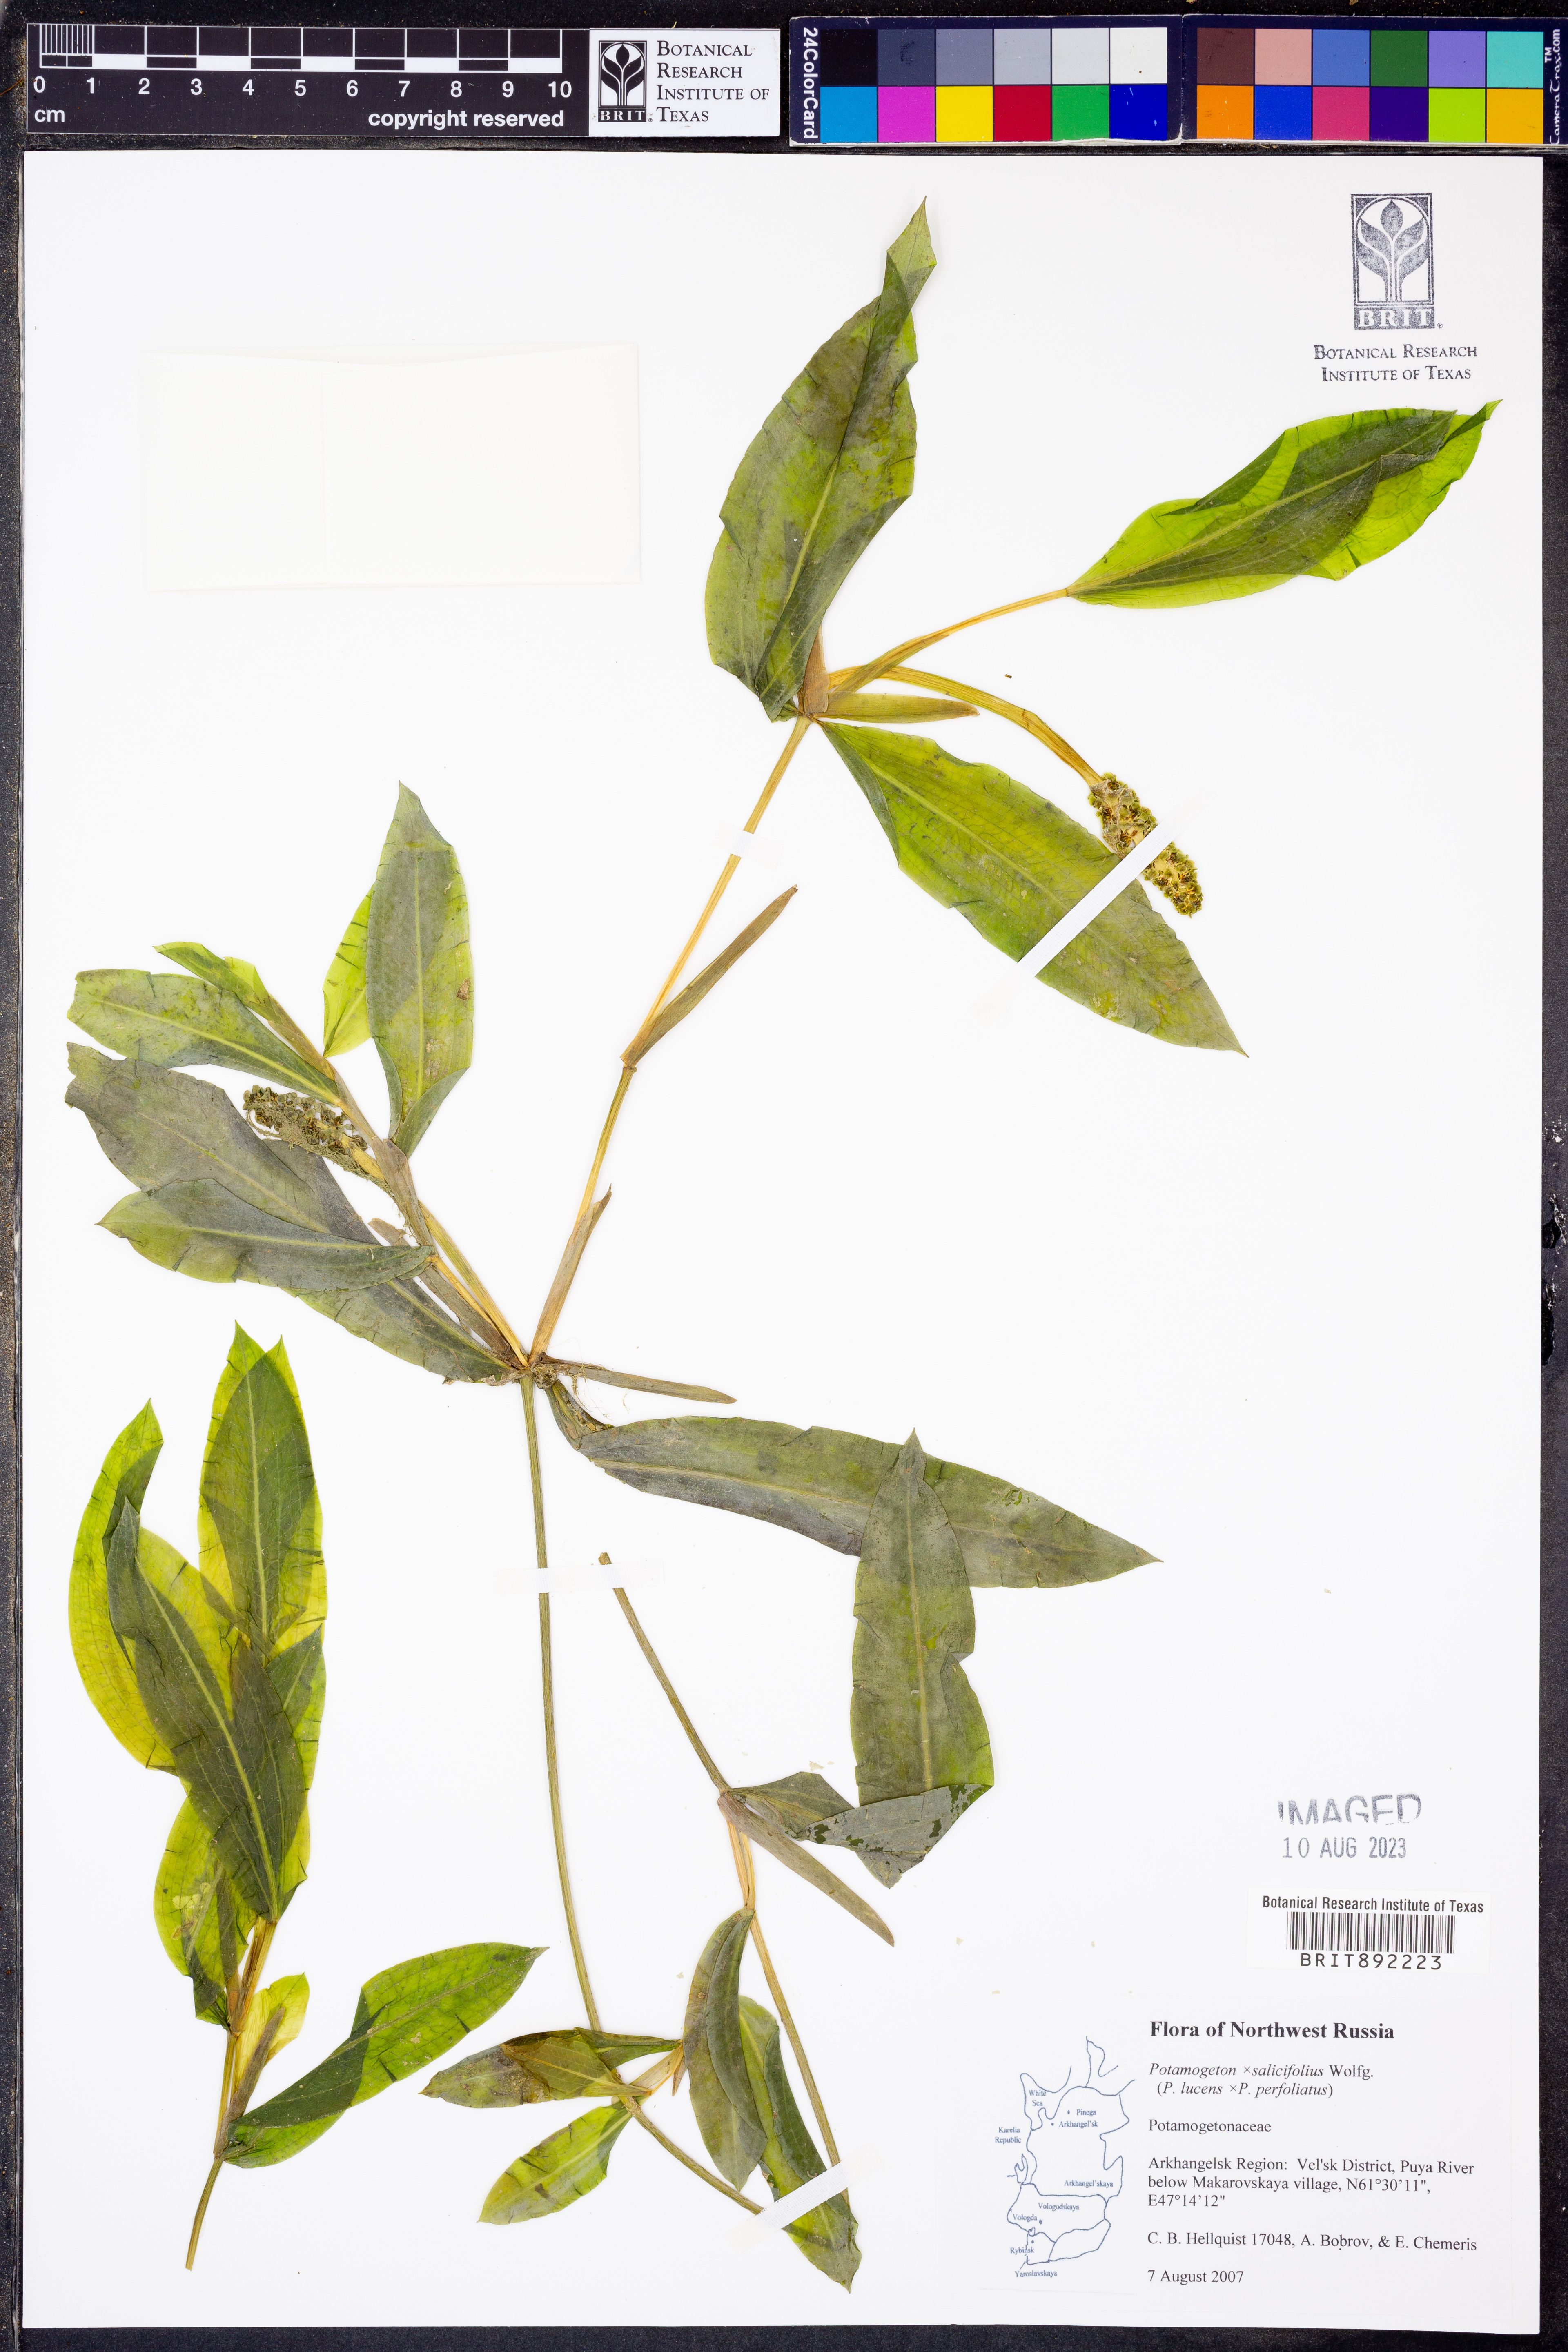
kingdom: Plantae
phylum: Tracheophyta
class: Liliopsida
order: Alismatales
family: Potamogetonaceae
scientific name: Potamogetonaceae
